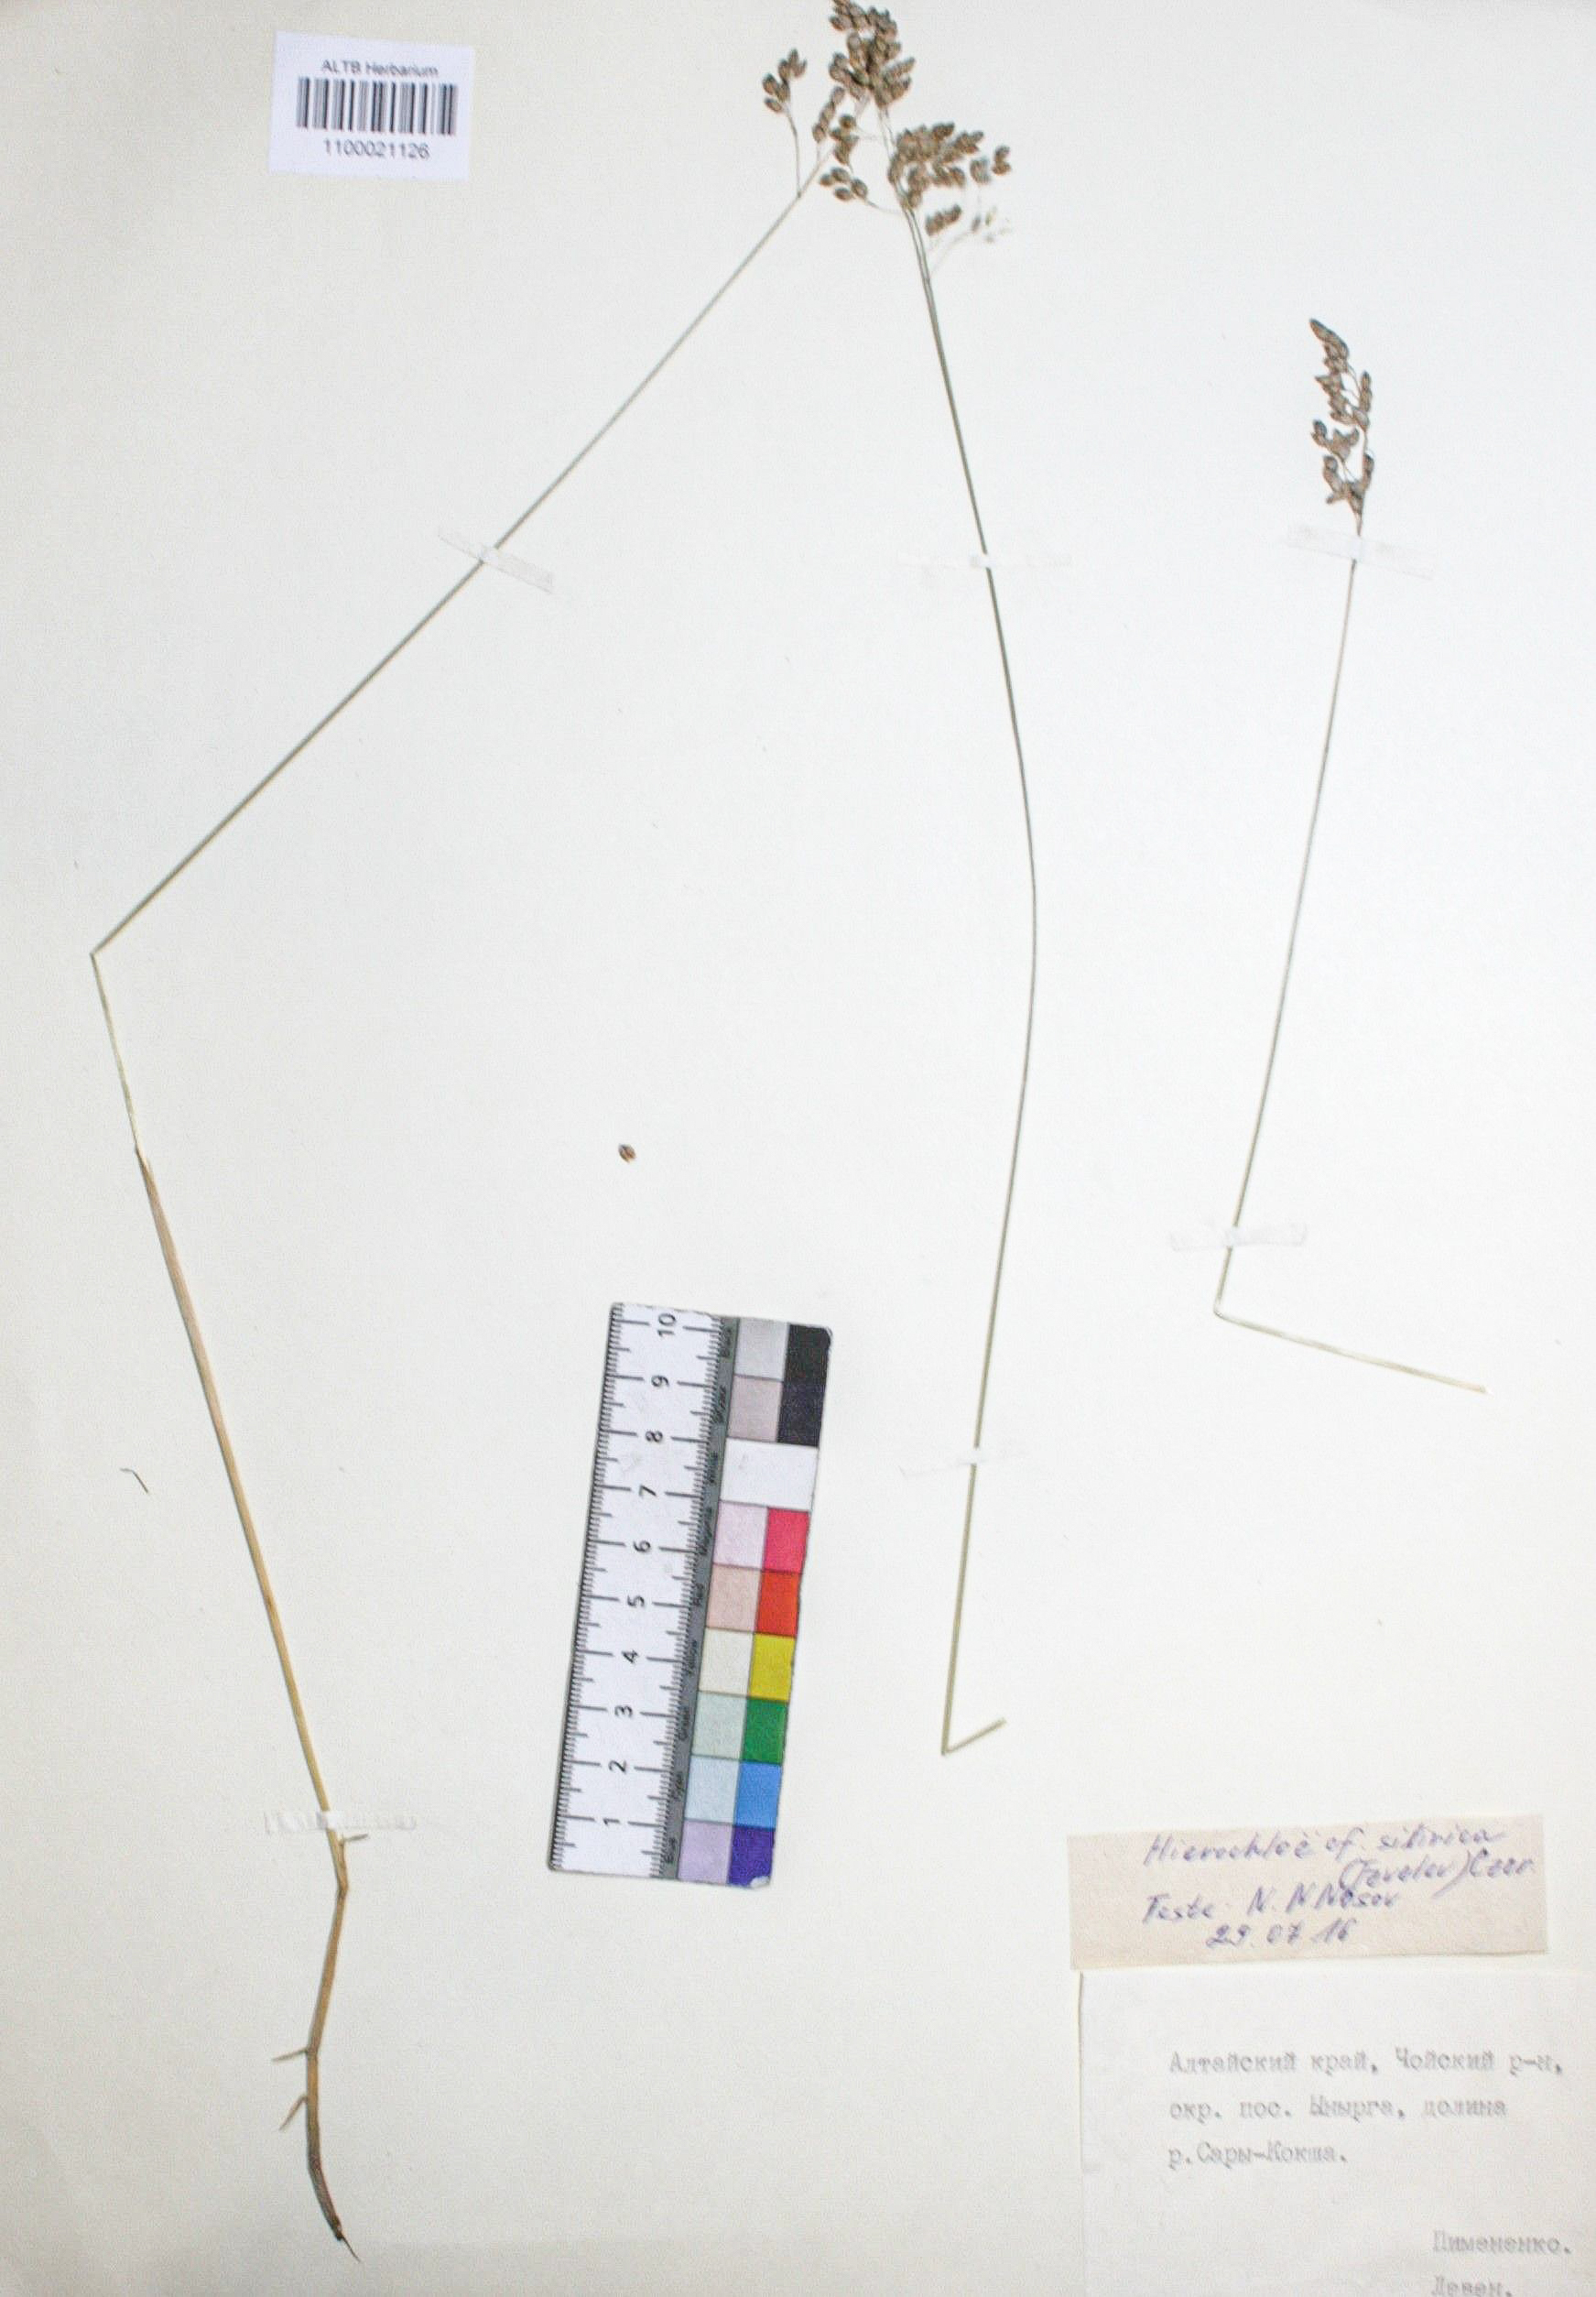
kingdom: Plantae
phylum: Tracheophyta
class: Liliopsida
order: Poales
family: Poaceae
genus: Anthoxanthum
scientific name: Anthoxanthum glabrum
